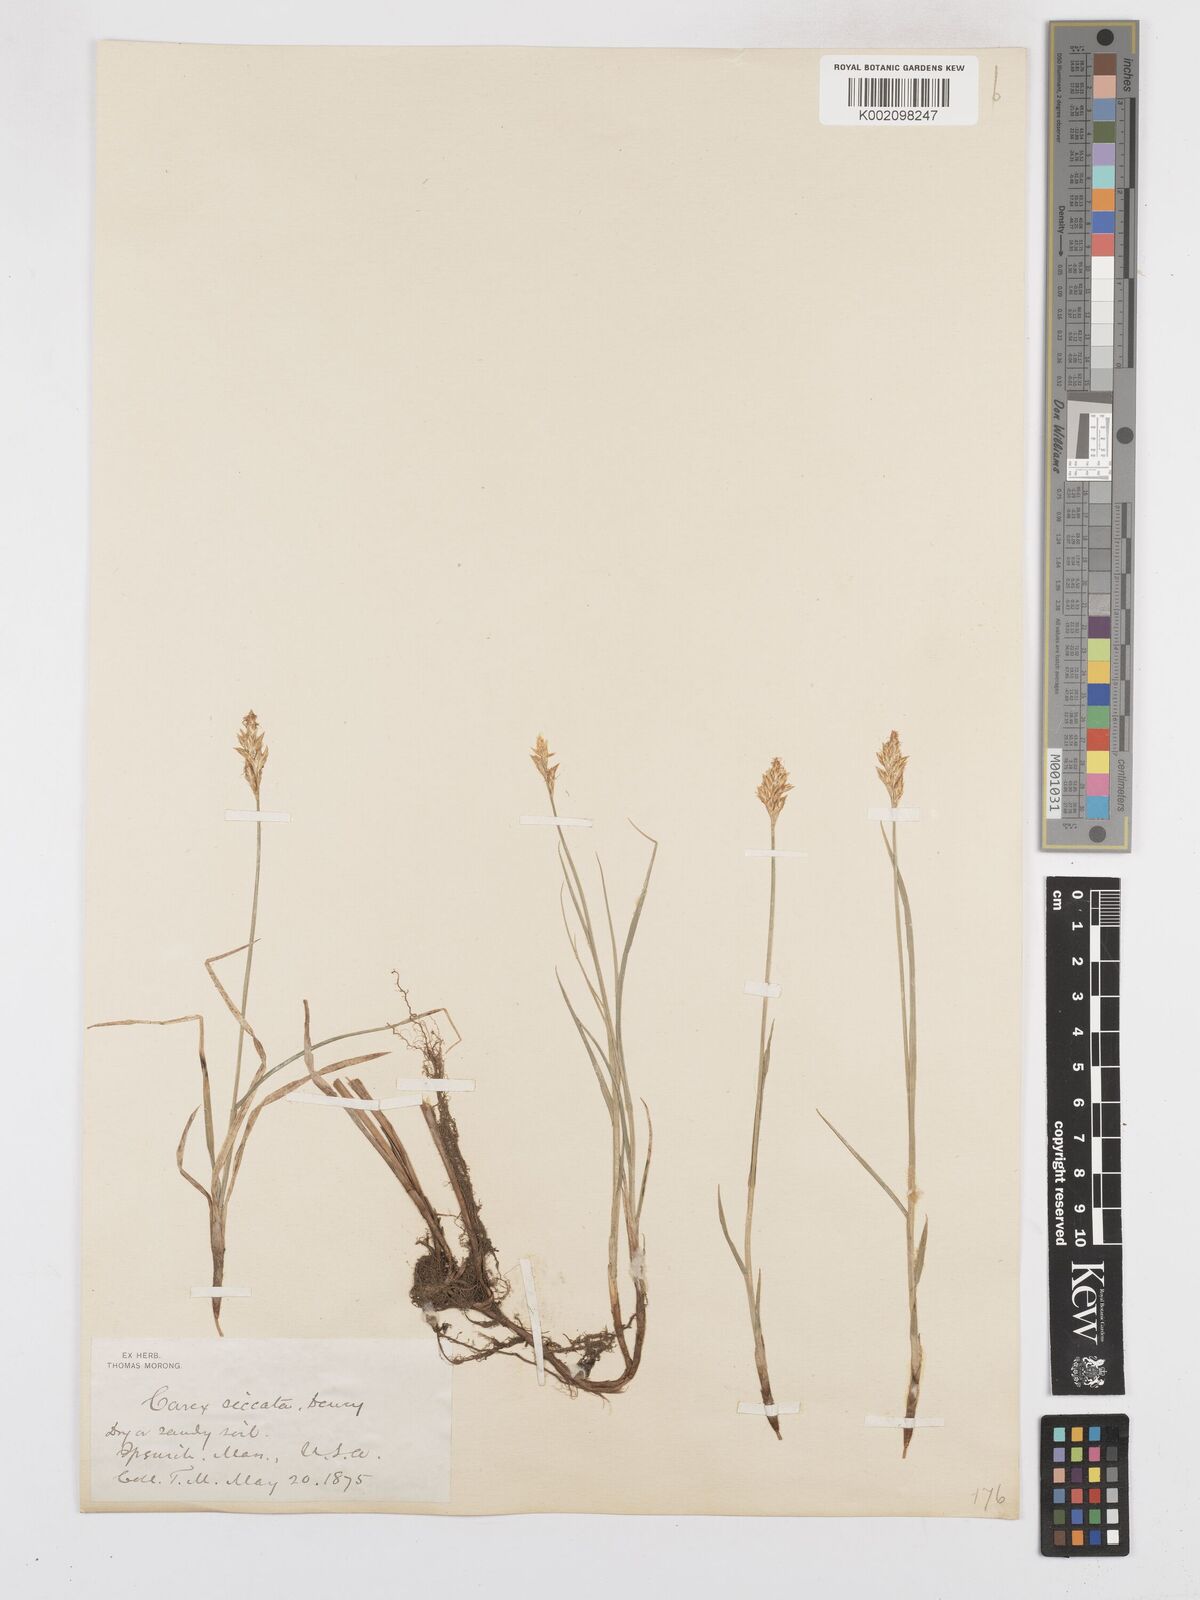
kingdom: Plantae
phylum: Tracheophyta
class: Liliopsida
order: Poales
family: Cyperaceae
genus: Carex
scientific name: Carex foenea
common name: Bronze sedge
